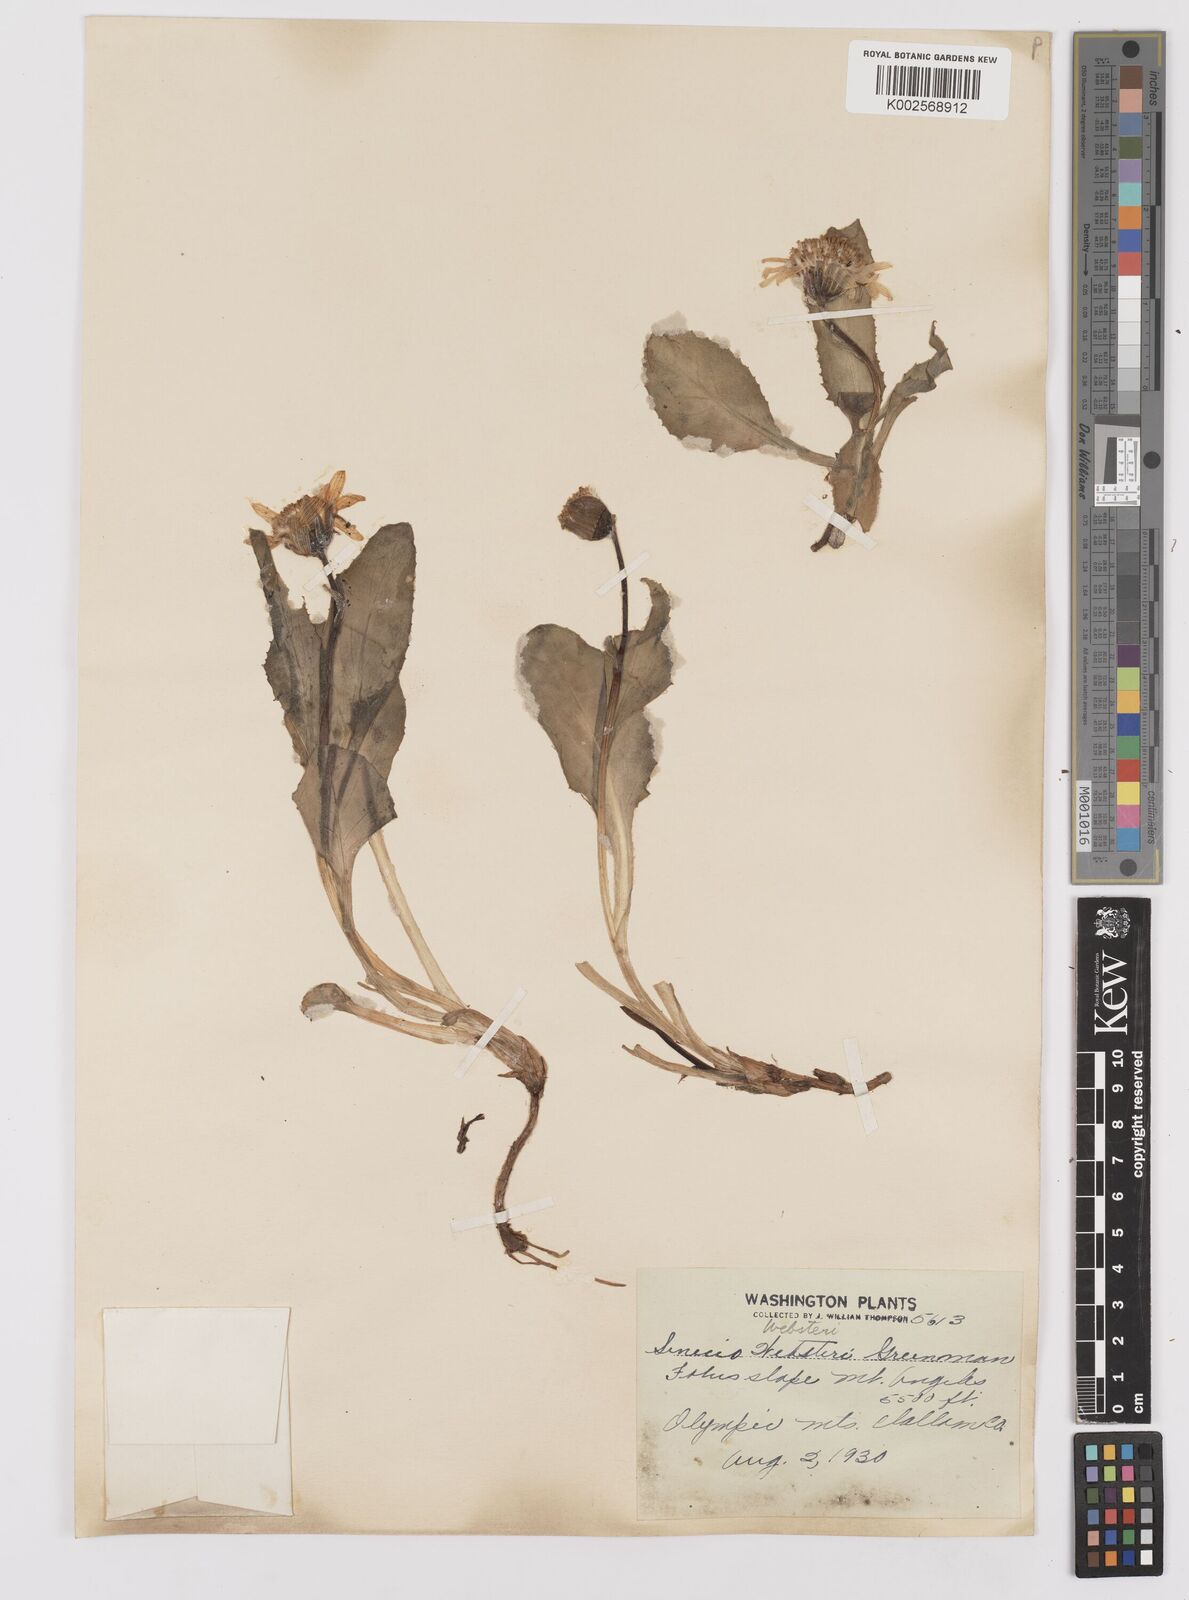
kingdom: Plantae
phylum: Tracheophyta
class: Magnoliopsida
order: Asterales
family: Asteraceae
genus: Senecio
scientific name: Senecio neowebsteri
